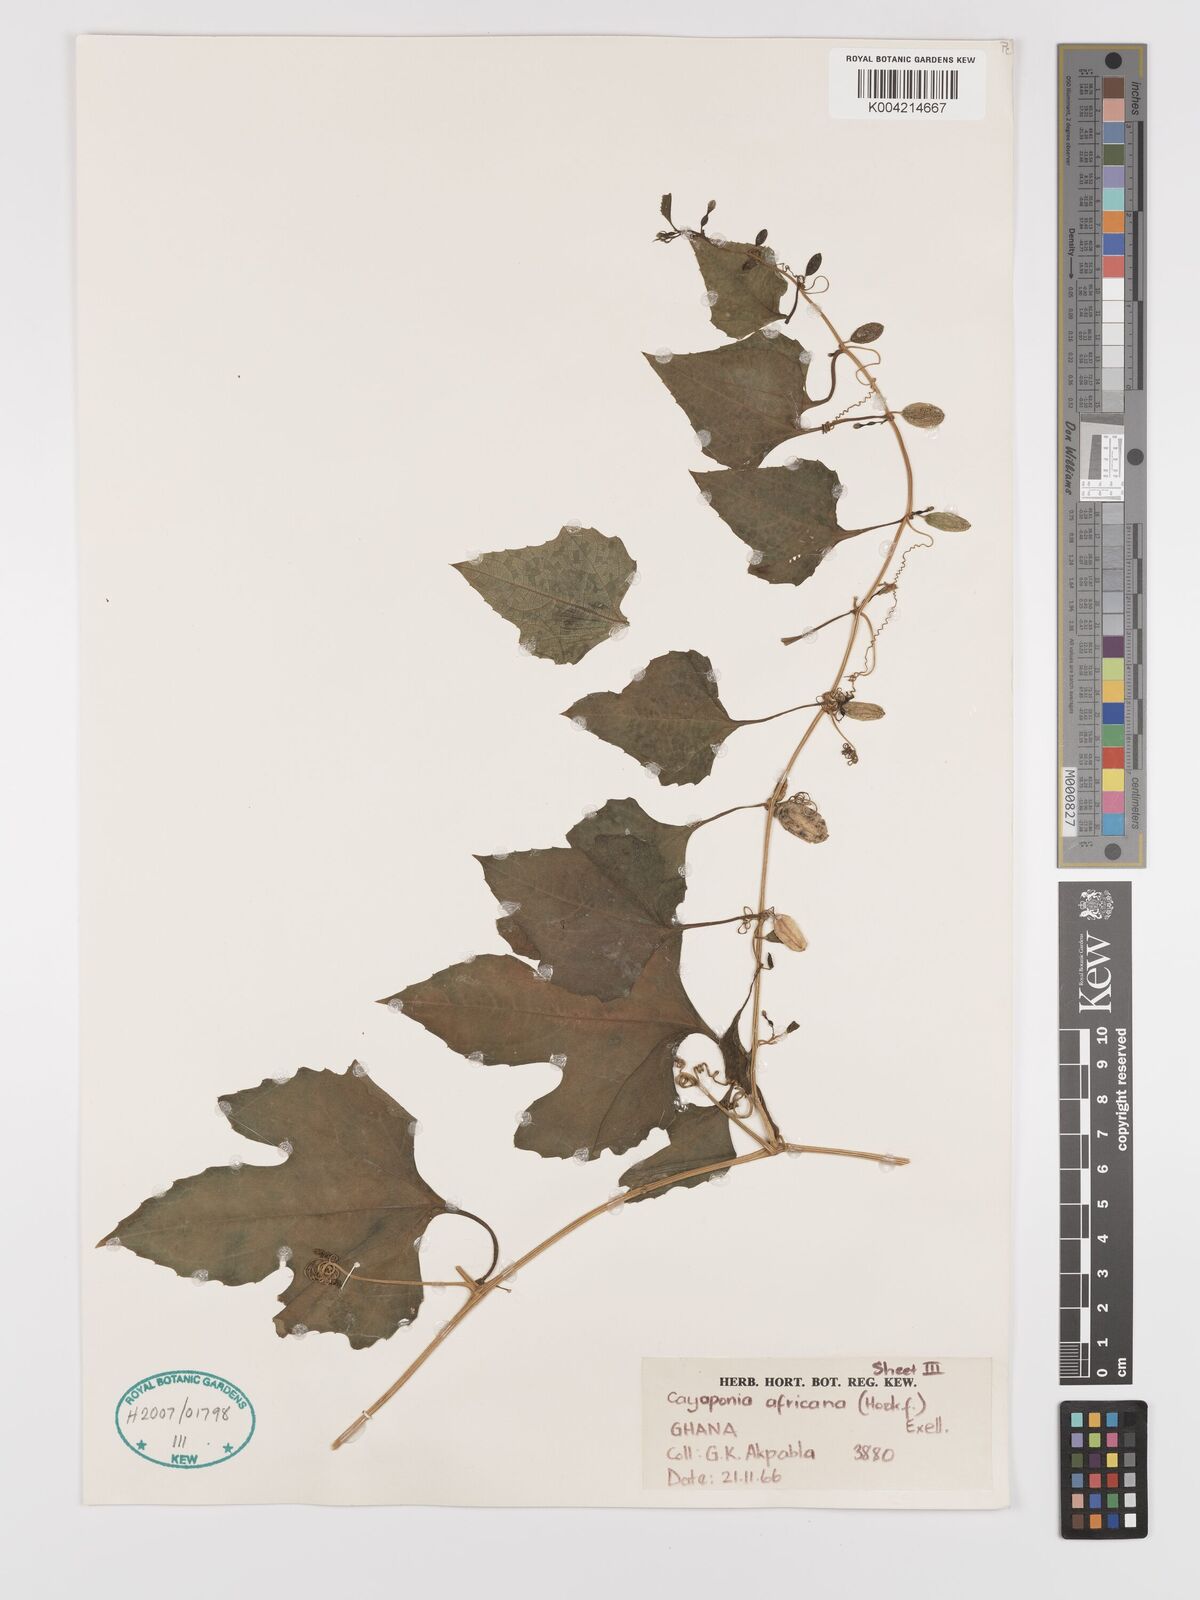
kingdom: Plantae
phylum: Tracheophyta
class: Magnoliopsida
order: Cucurbitales
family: Cucurbitaceae
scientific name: Cucurbitaceae
